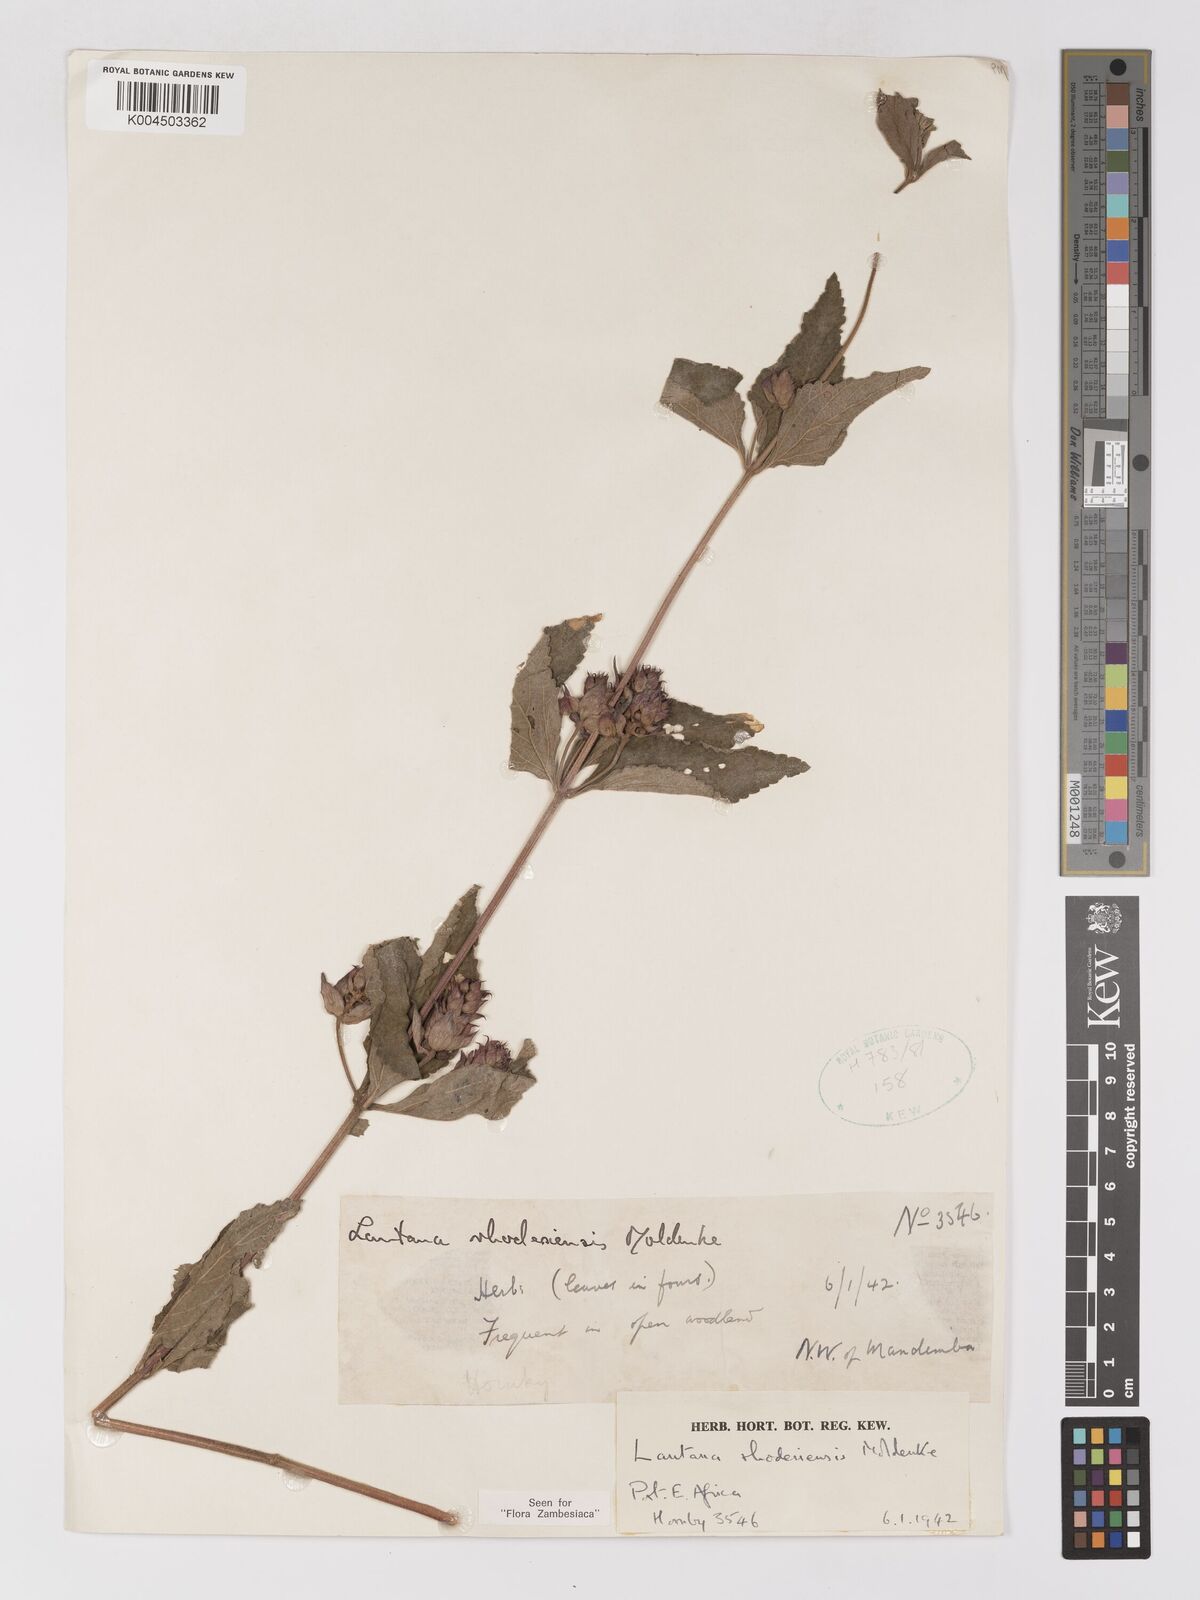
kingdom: Plantae
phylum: Tracheophyta
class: Magnoliopsida
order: Lamiales
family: Verbenaceae
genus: Lantana
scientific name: Lantana ukambensis
